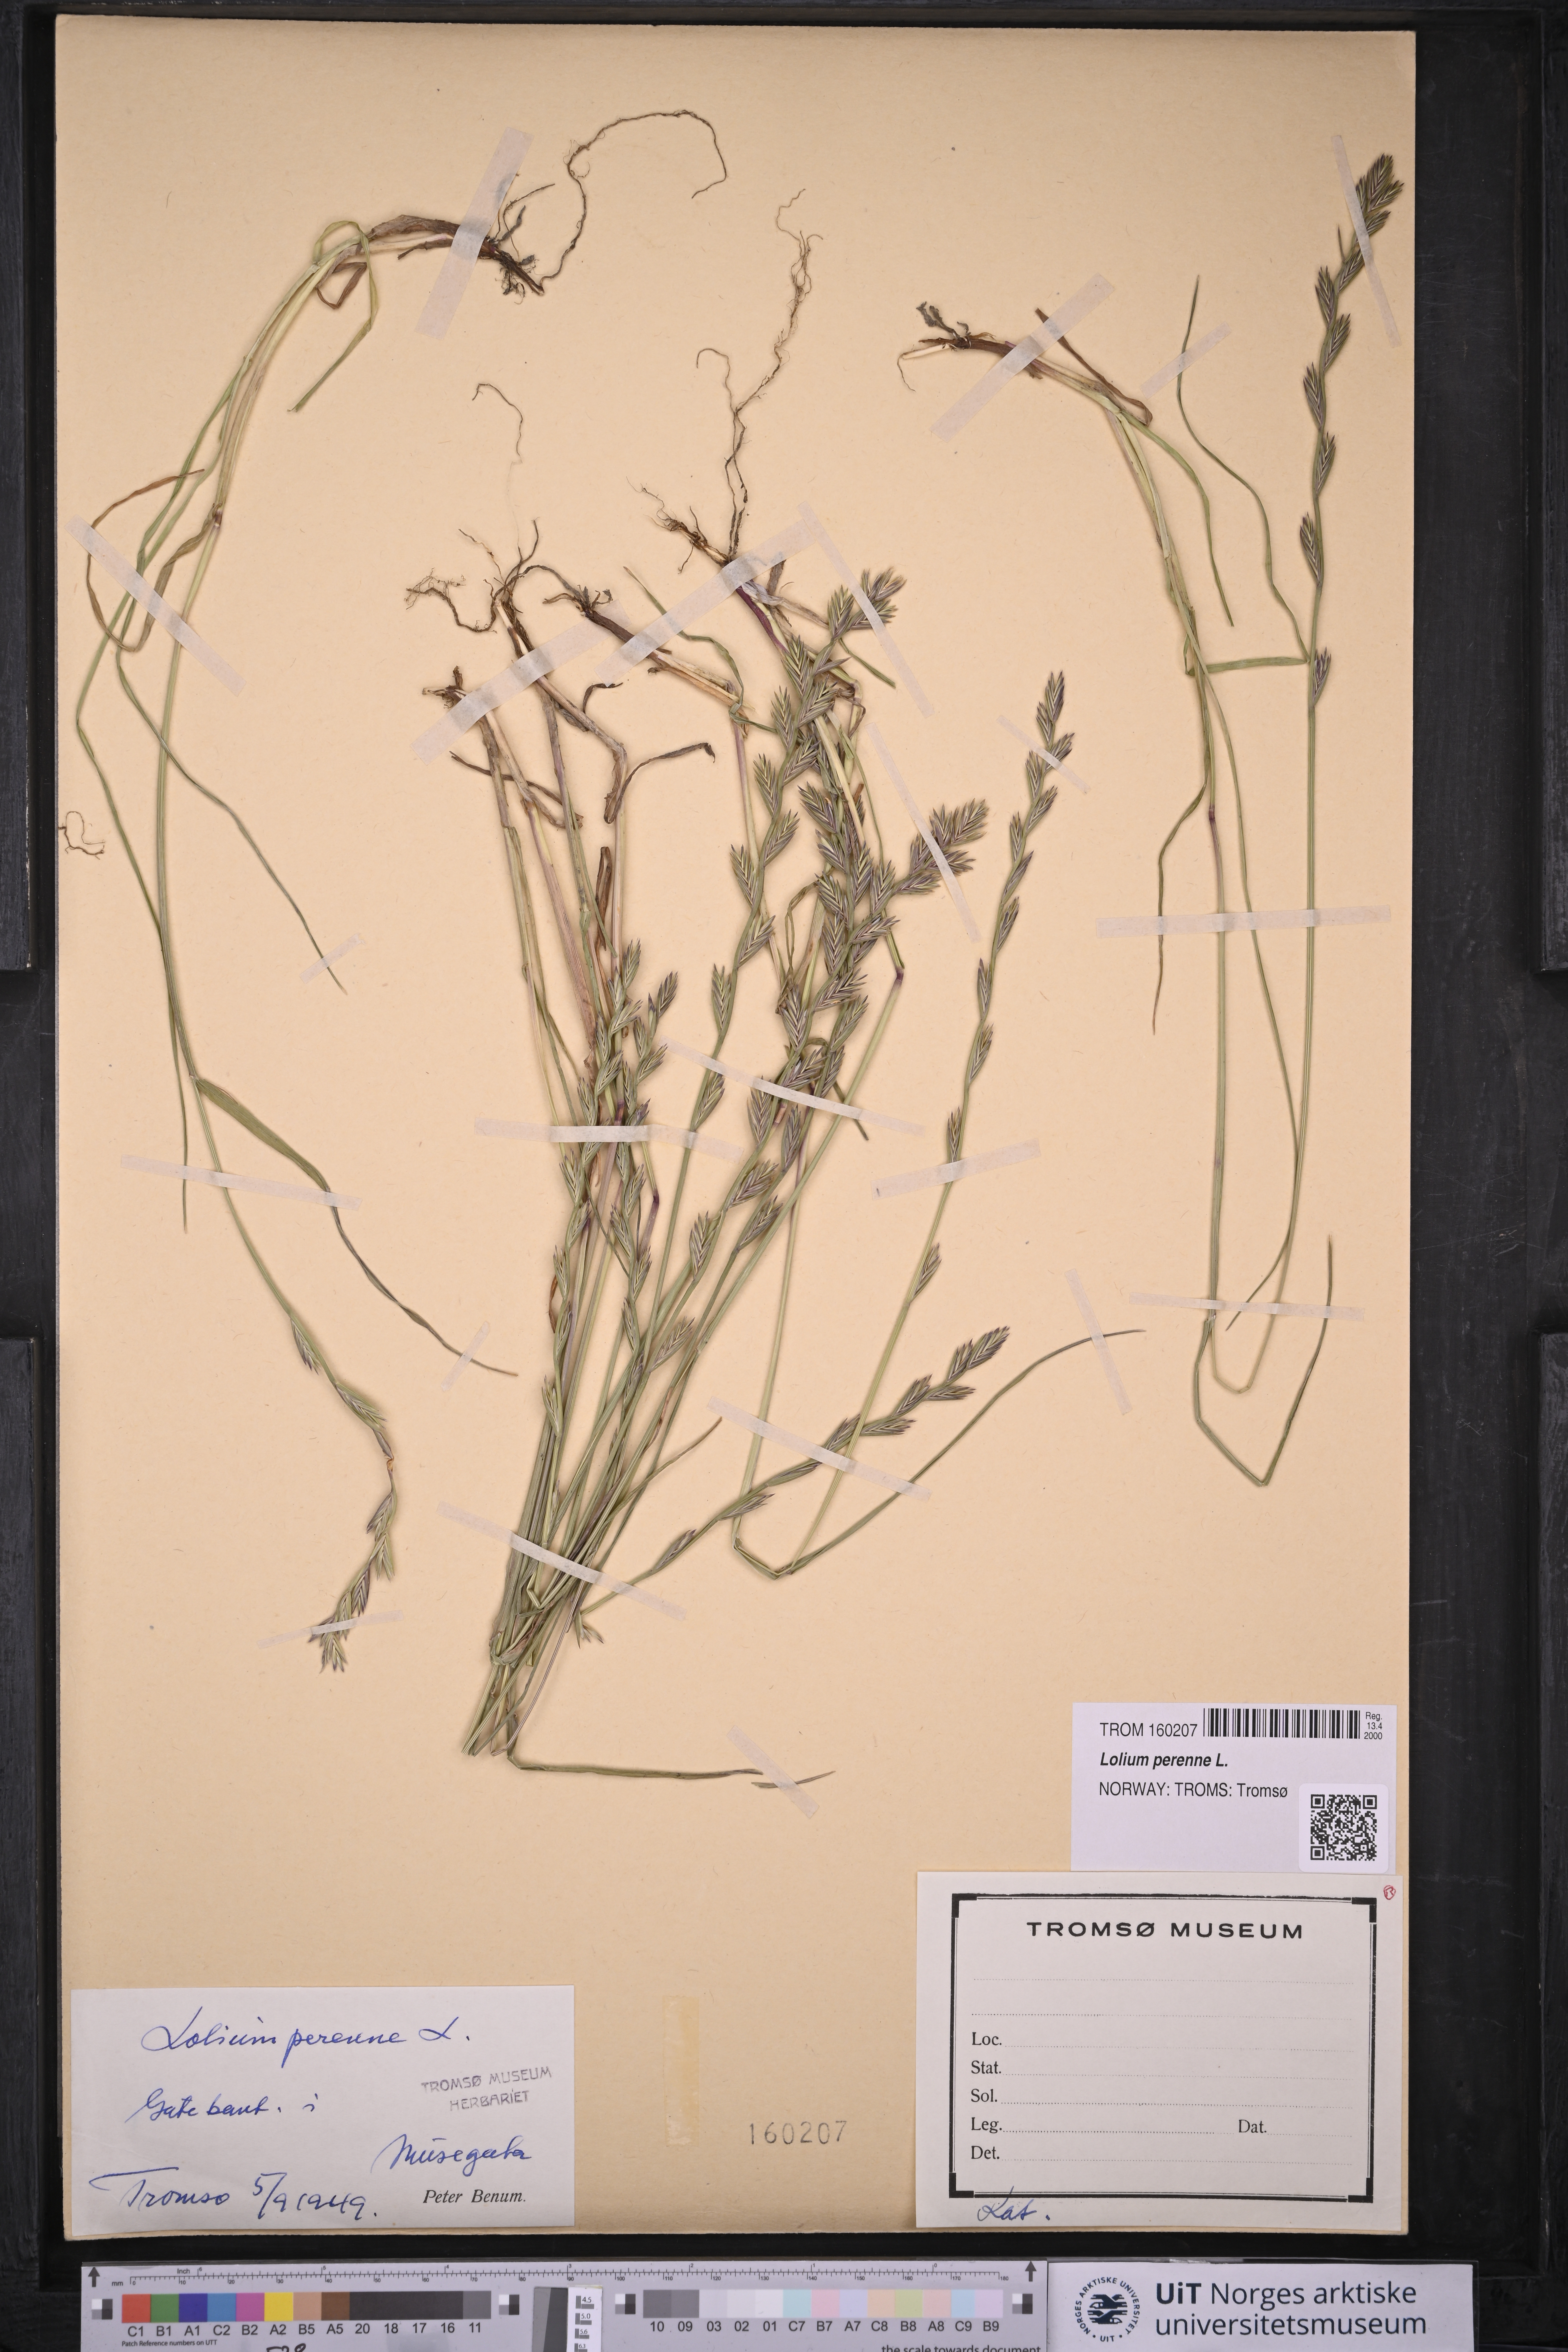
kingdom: Plantae
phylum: Tracheophyta
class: Liliopsida
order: Poales
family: Poaceae
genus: Lolium
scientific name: Lolium perenne
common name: Perennial ryegrass
